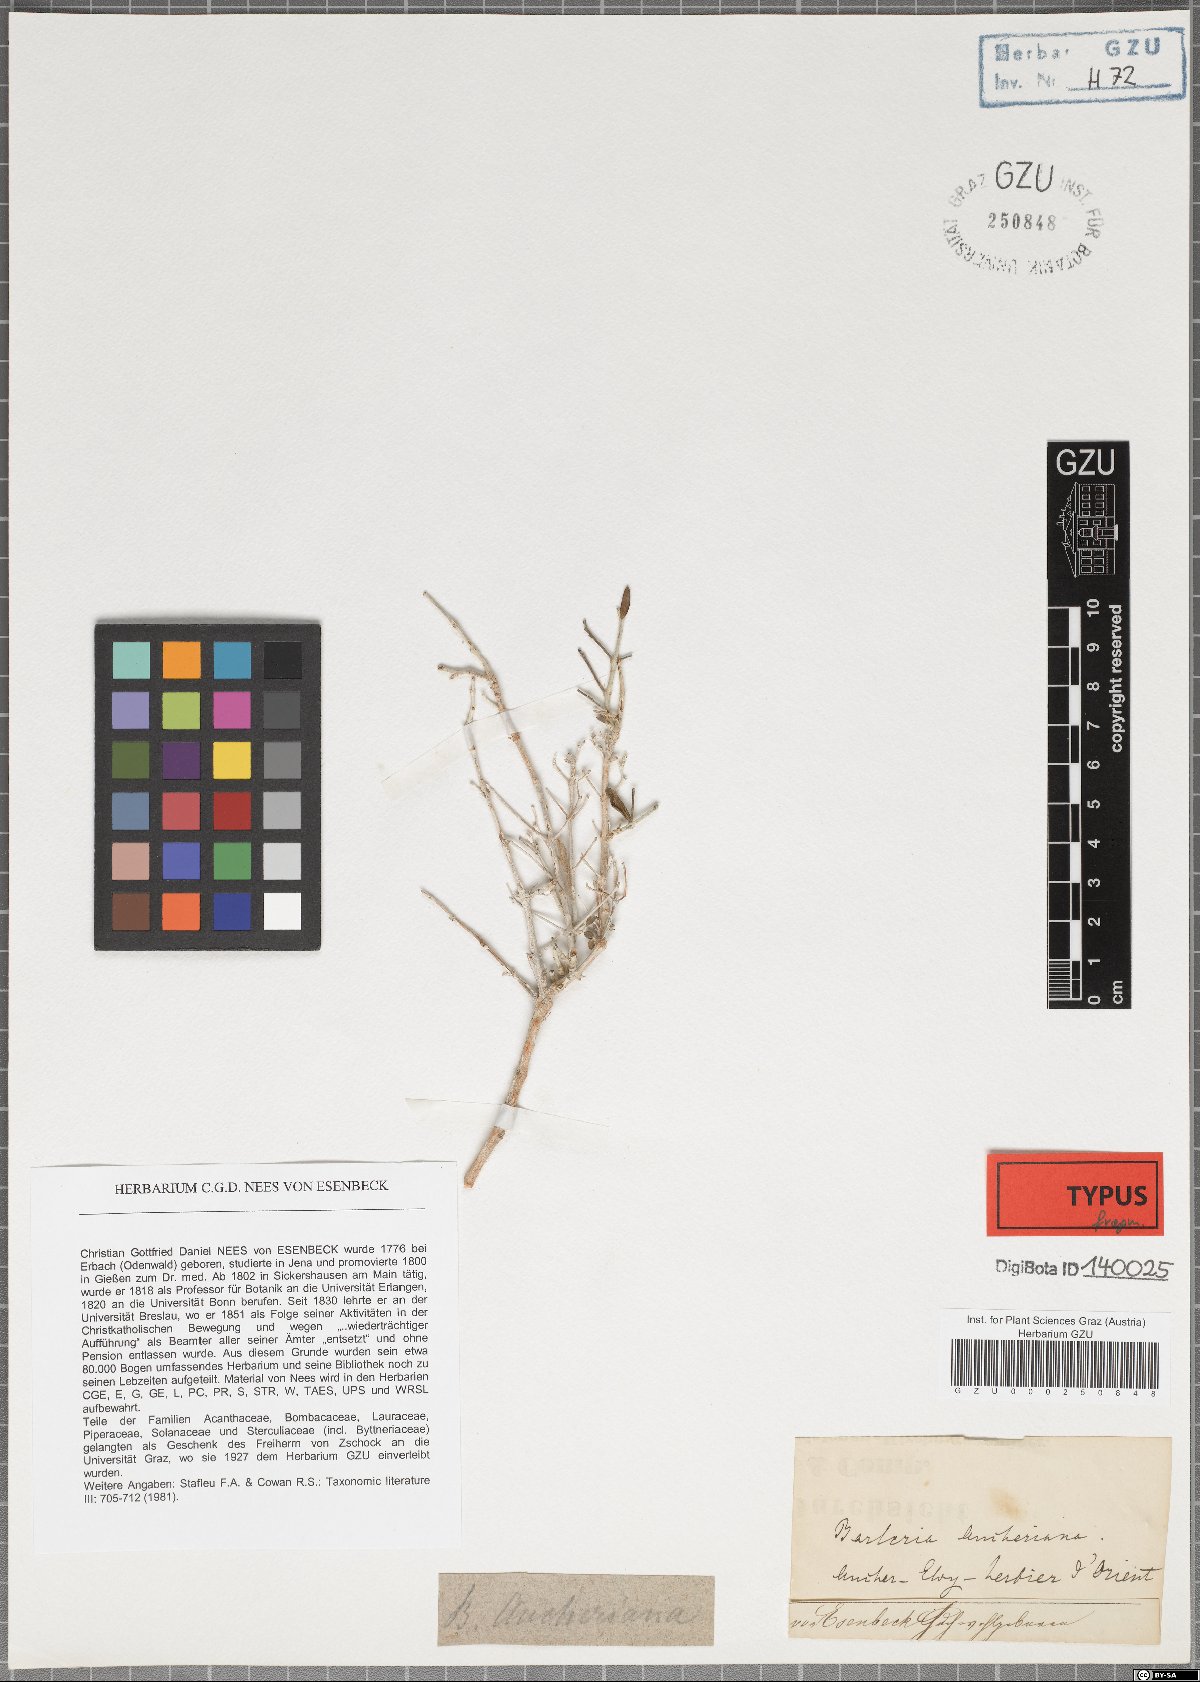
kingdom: Plantae
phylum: Tracheophyta
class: Magnoliopsida
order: Lamiales
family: Acanthaceae
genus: Barleria
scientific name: Barleria hochstetteri
